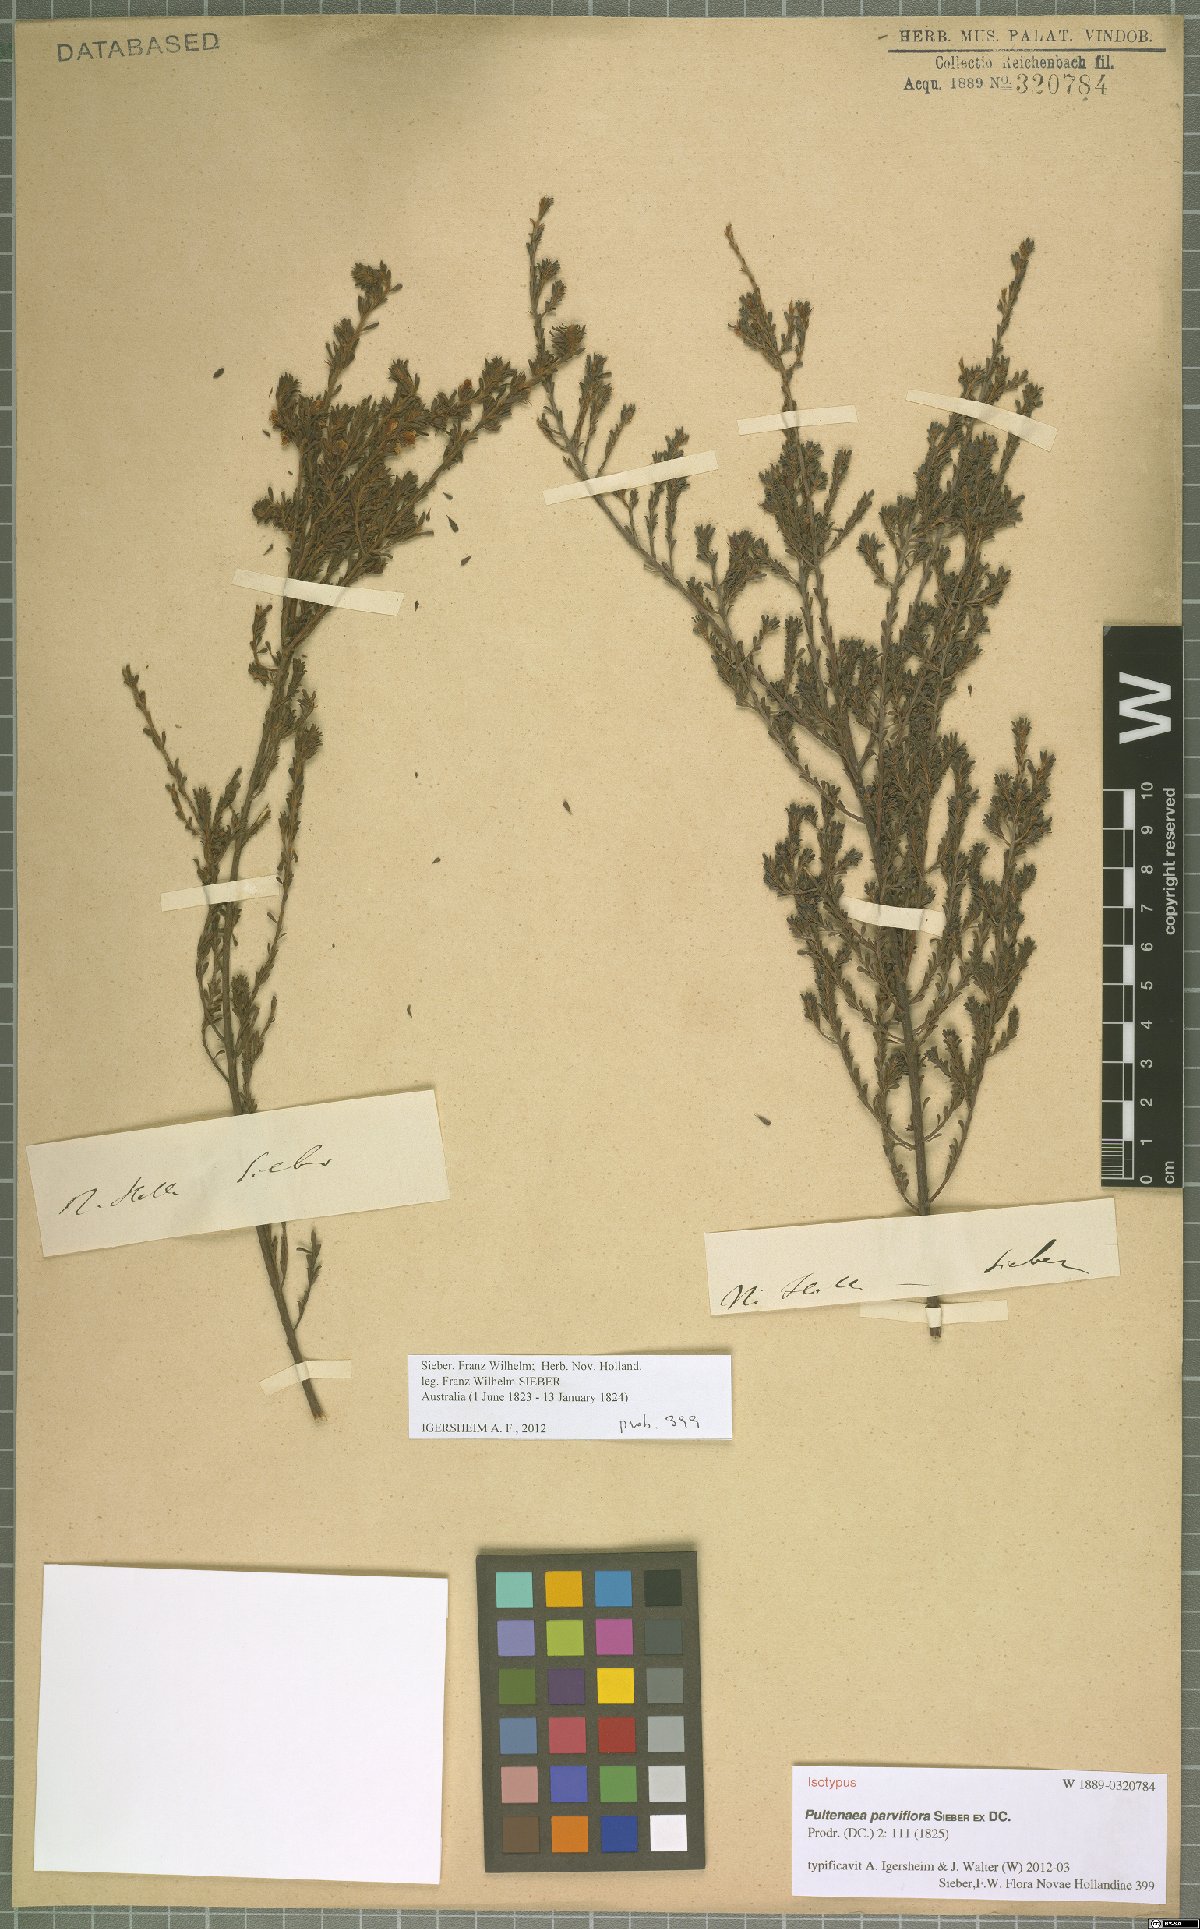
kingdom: Plantae
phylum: Tracheophyta
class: Magnoliopsida
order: Fabales
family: Fabaceae
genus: Pultenaea
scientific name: Pultenaea parviflora
